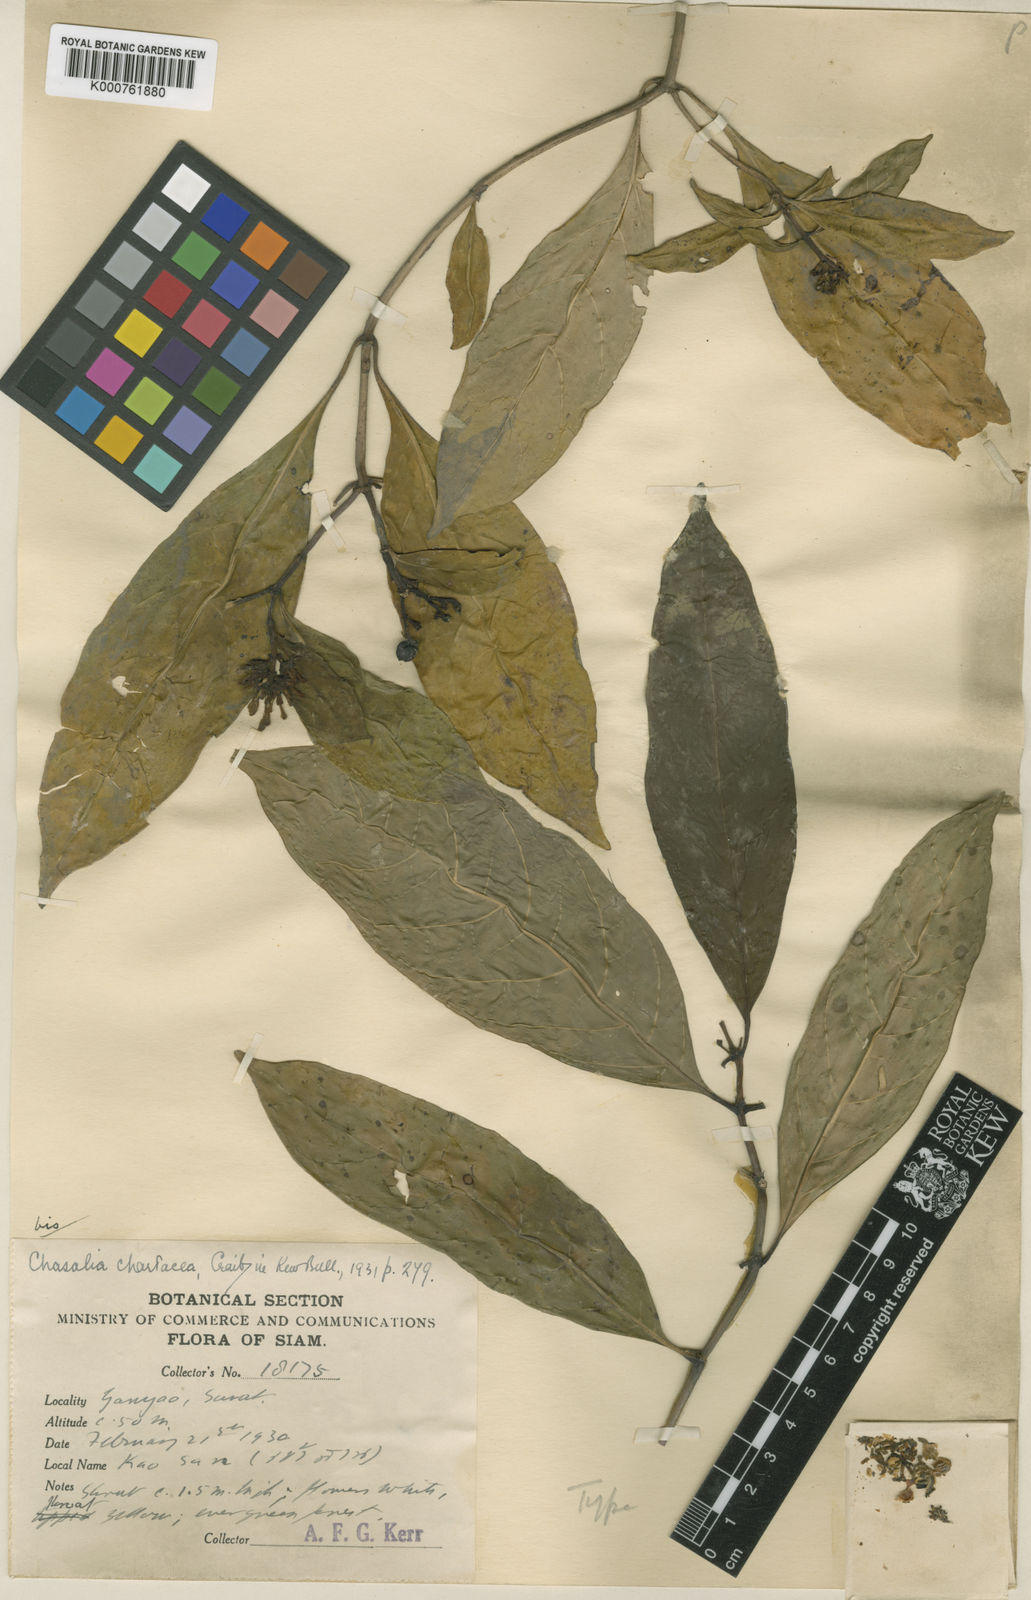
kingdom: Plantae
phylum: Tracheophyta
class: Magnoliopsida
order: Gentianales
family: Rubiaceae
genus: Chassalia
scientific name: Chassalia curviflora
